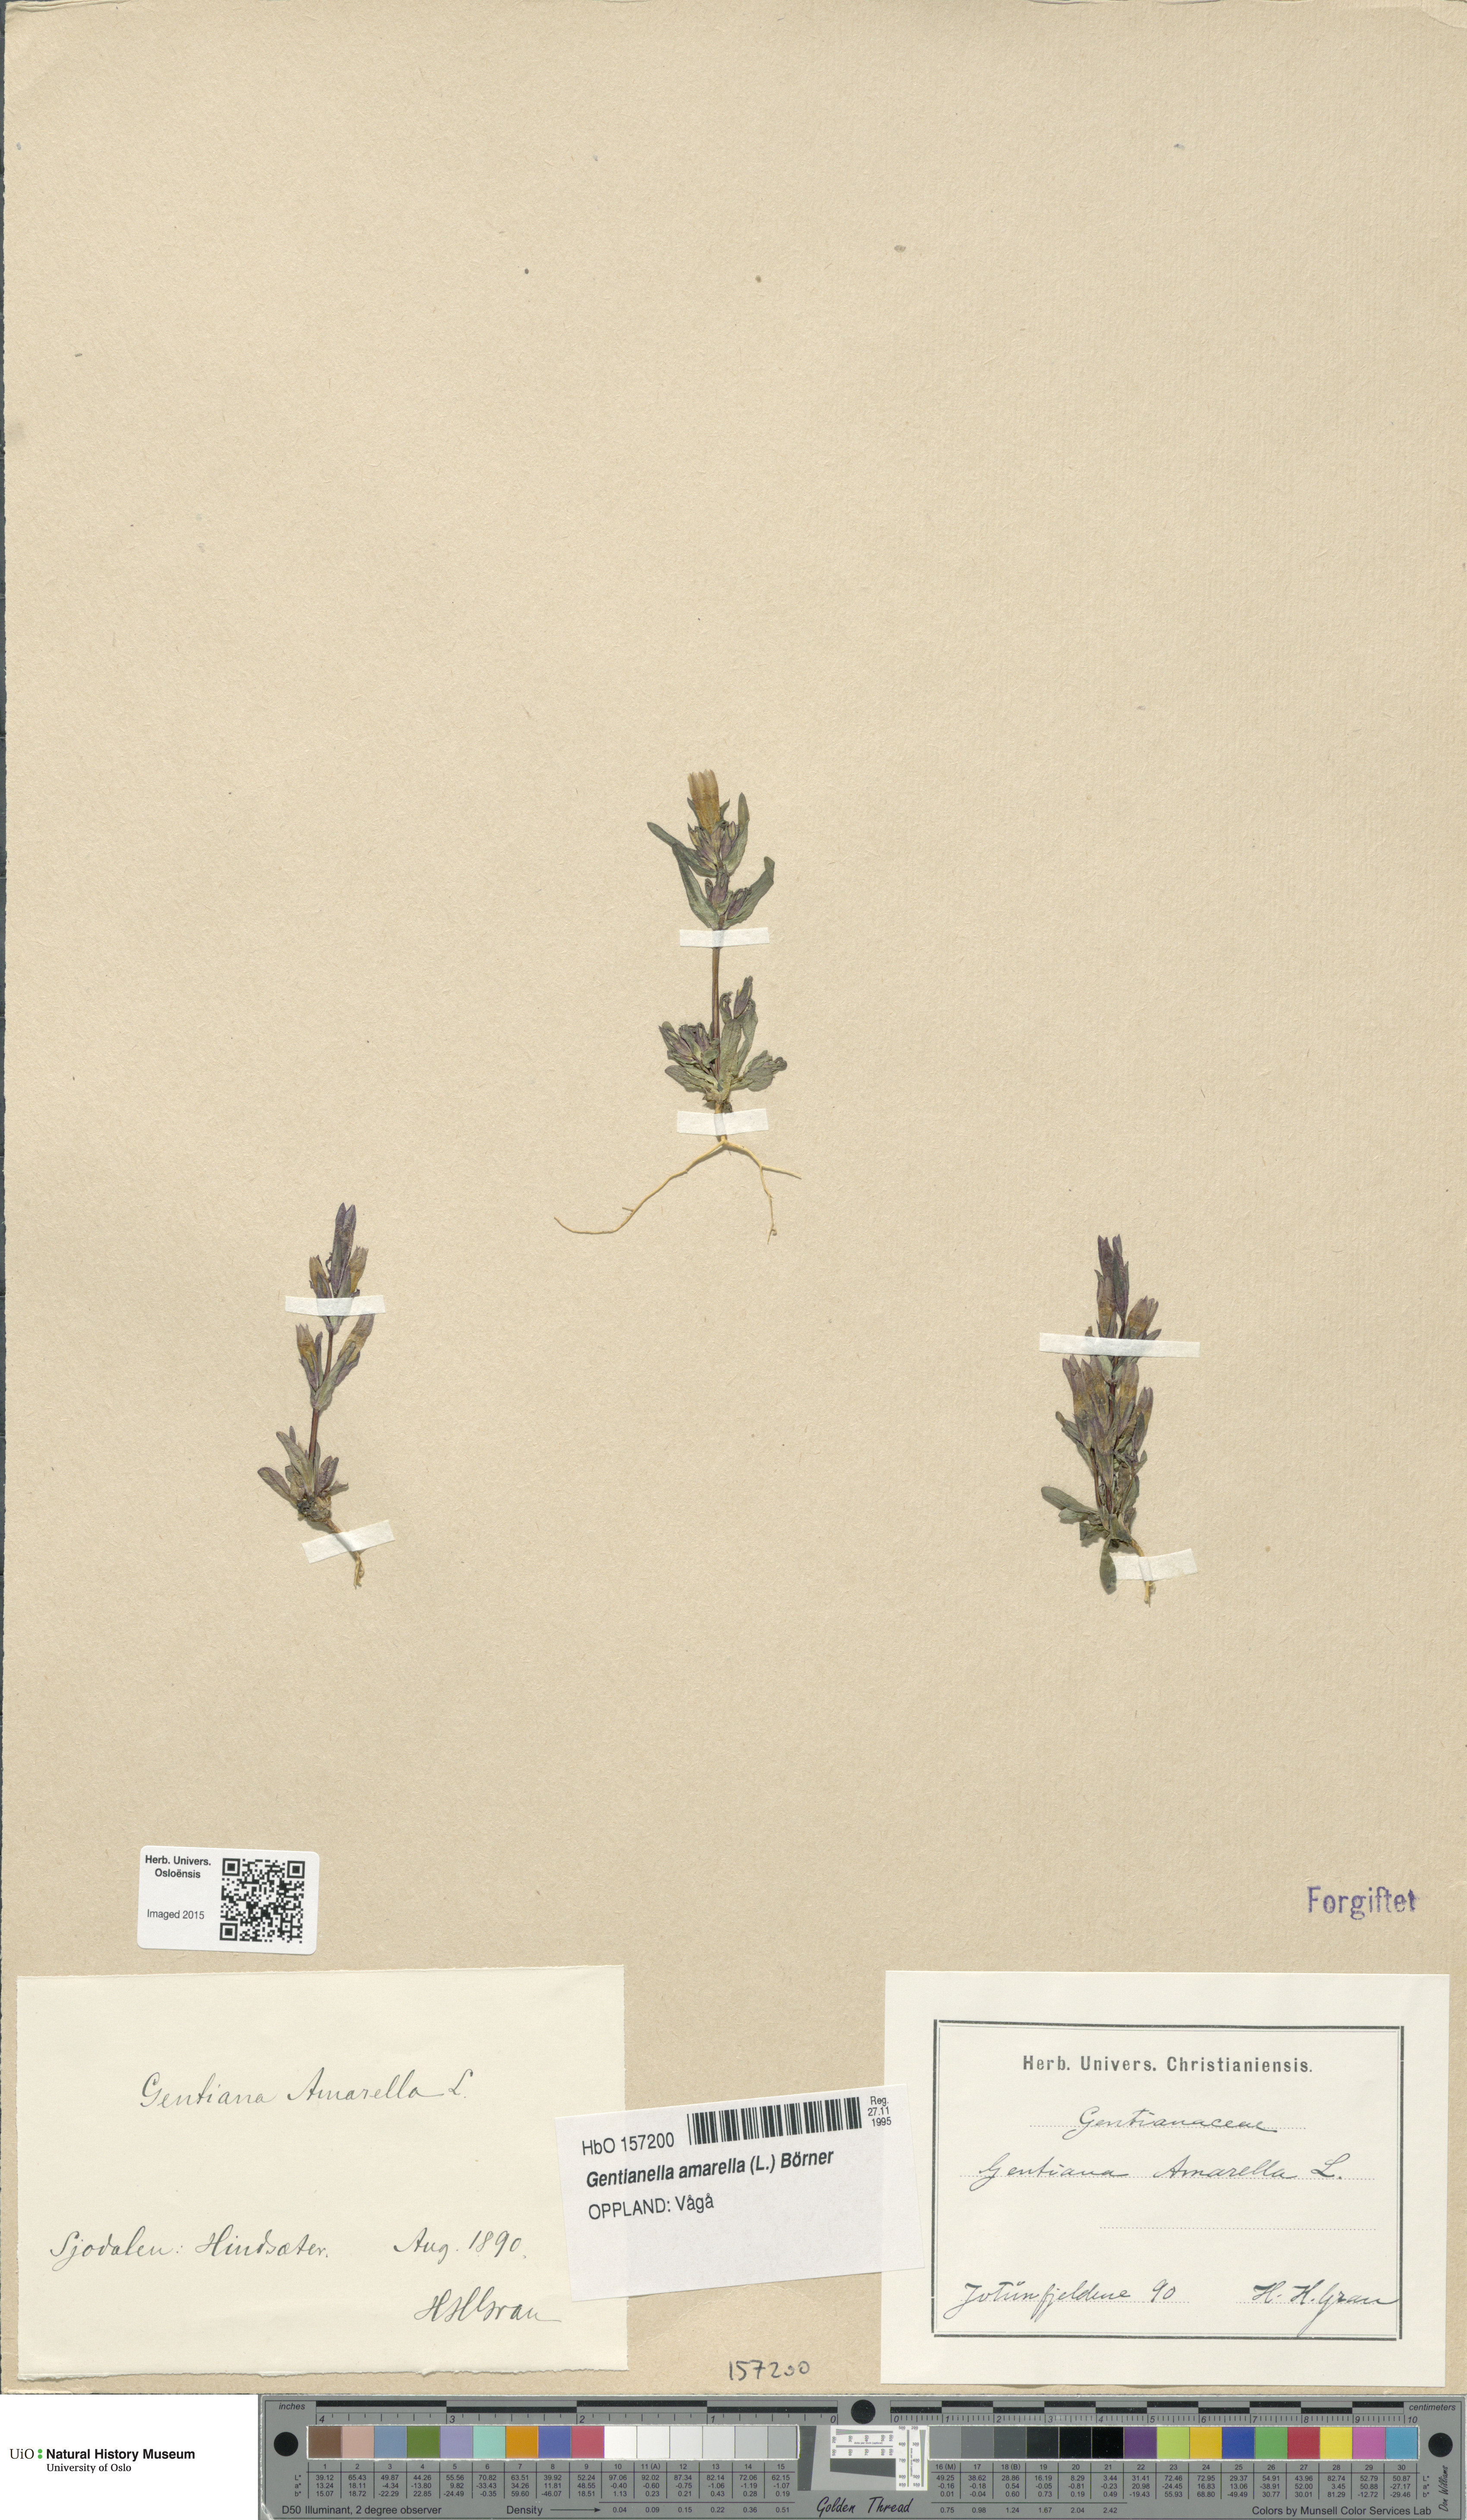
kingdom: Plantae
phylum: Tracheophyta
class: Magnoliopsida
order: Gentianales
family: Gentianaceae
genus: Gentianella
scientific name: Gentianella amarella
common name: Autumn gentian
